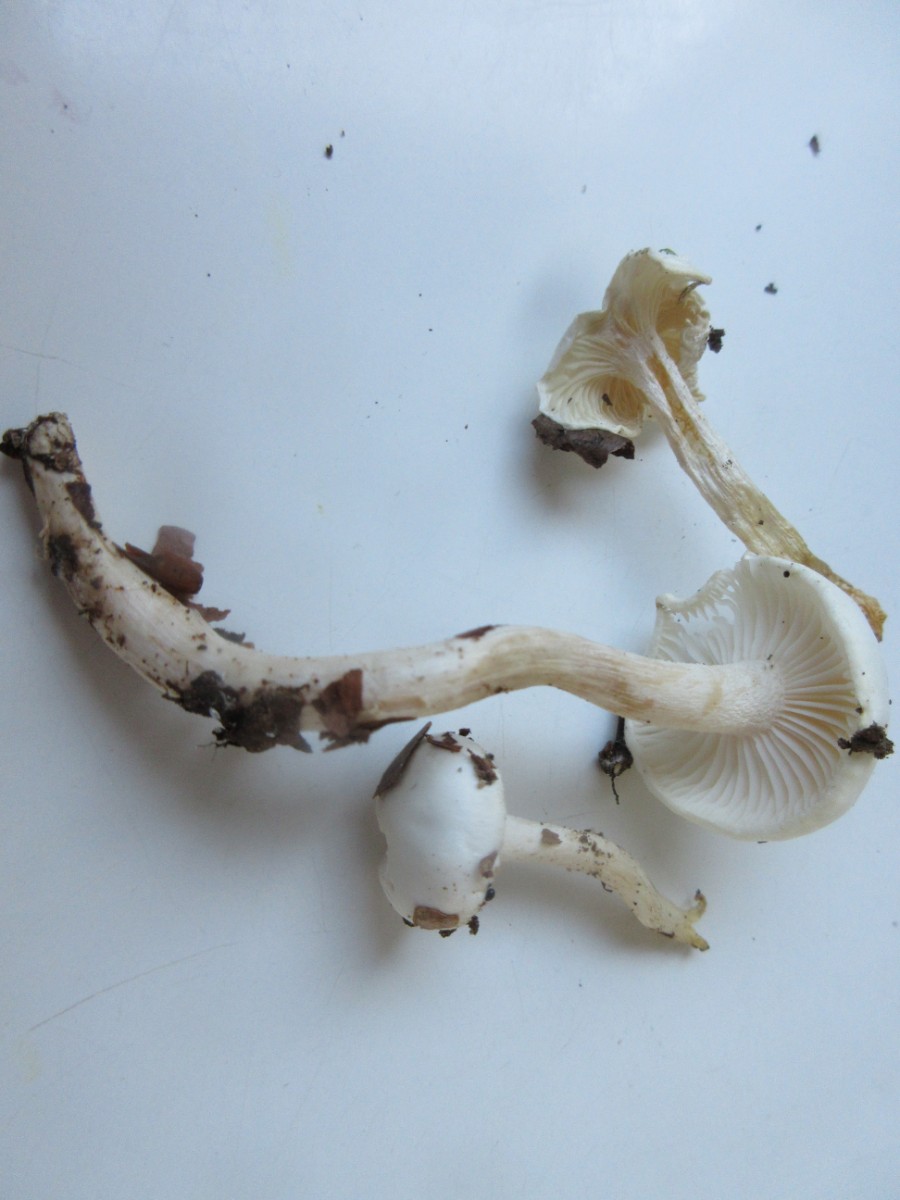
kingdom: Fungi
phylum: Basidiomycota
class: Agaricomycetes
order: Agaricales
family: Hygrophoraceae
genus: Hygrophorus
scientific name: Hygrophorus eburneus
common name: elfenbens-sneglehat
